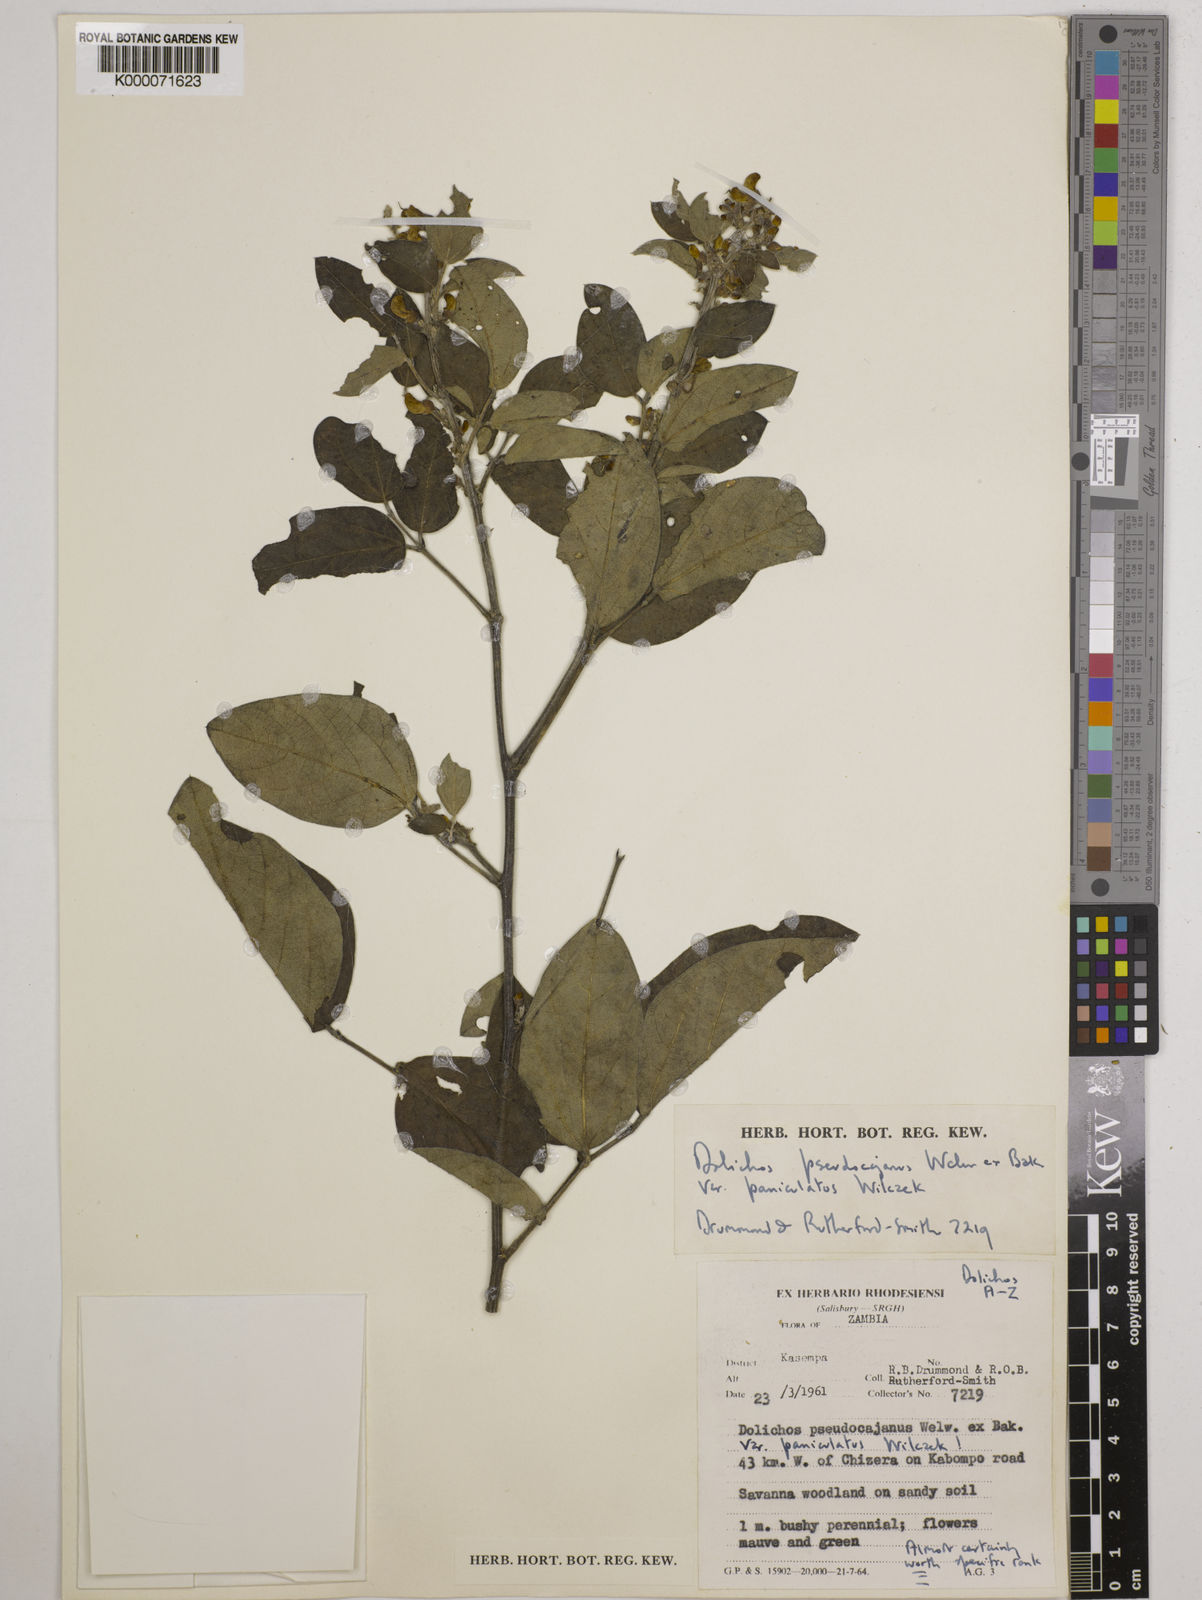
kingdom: Plantae
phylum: Tracheophyta
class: Magnoliopsida
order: Fabales
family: Fabaceae
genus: Dolichos
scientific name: Dolichos brevidentatus
